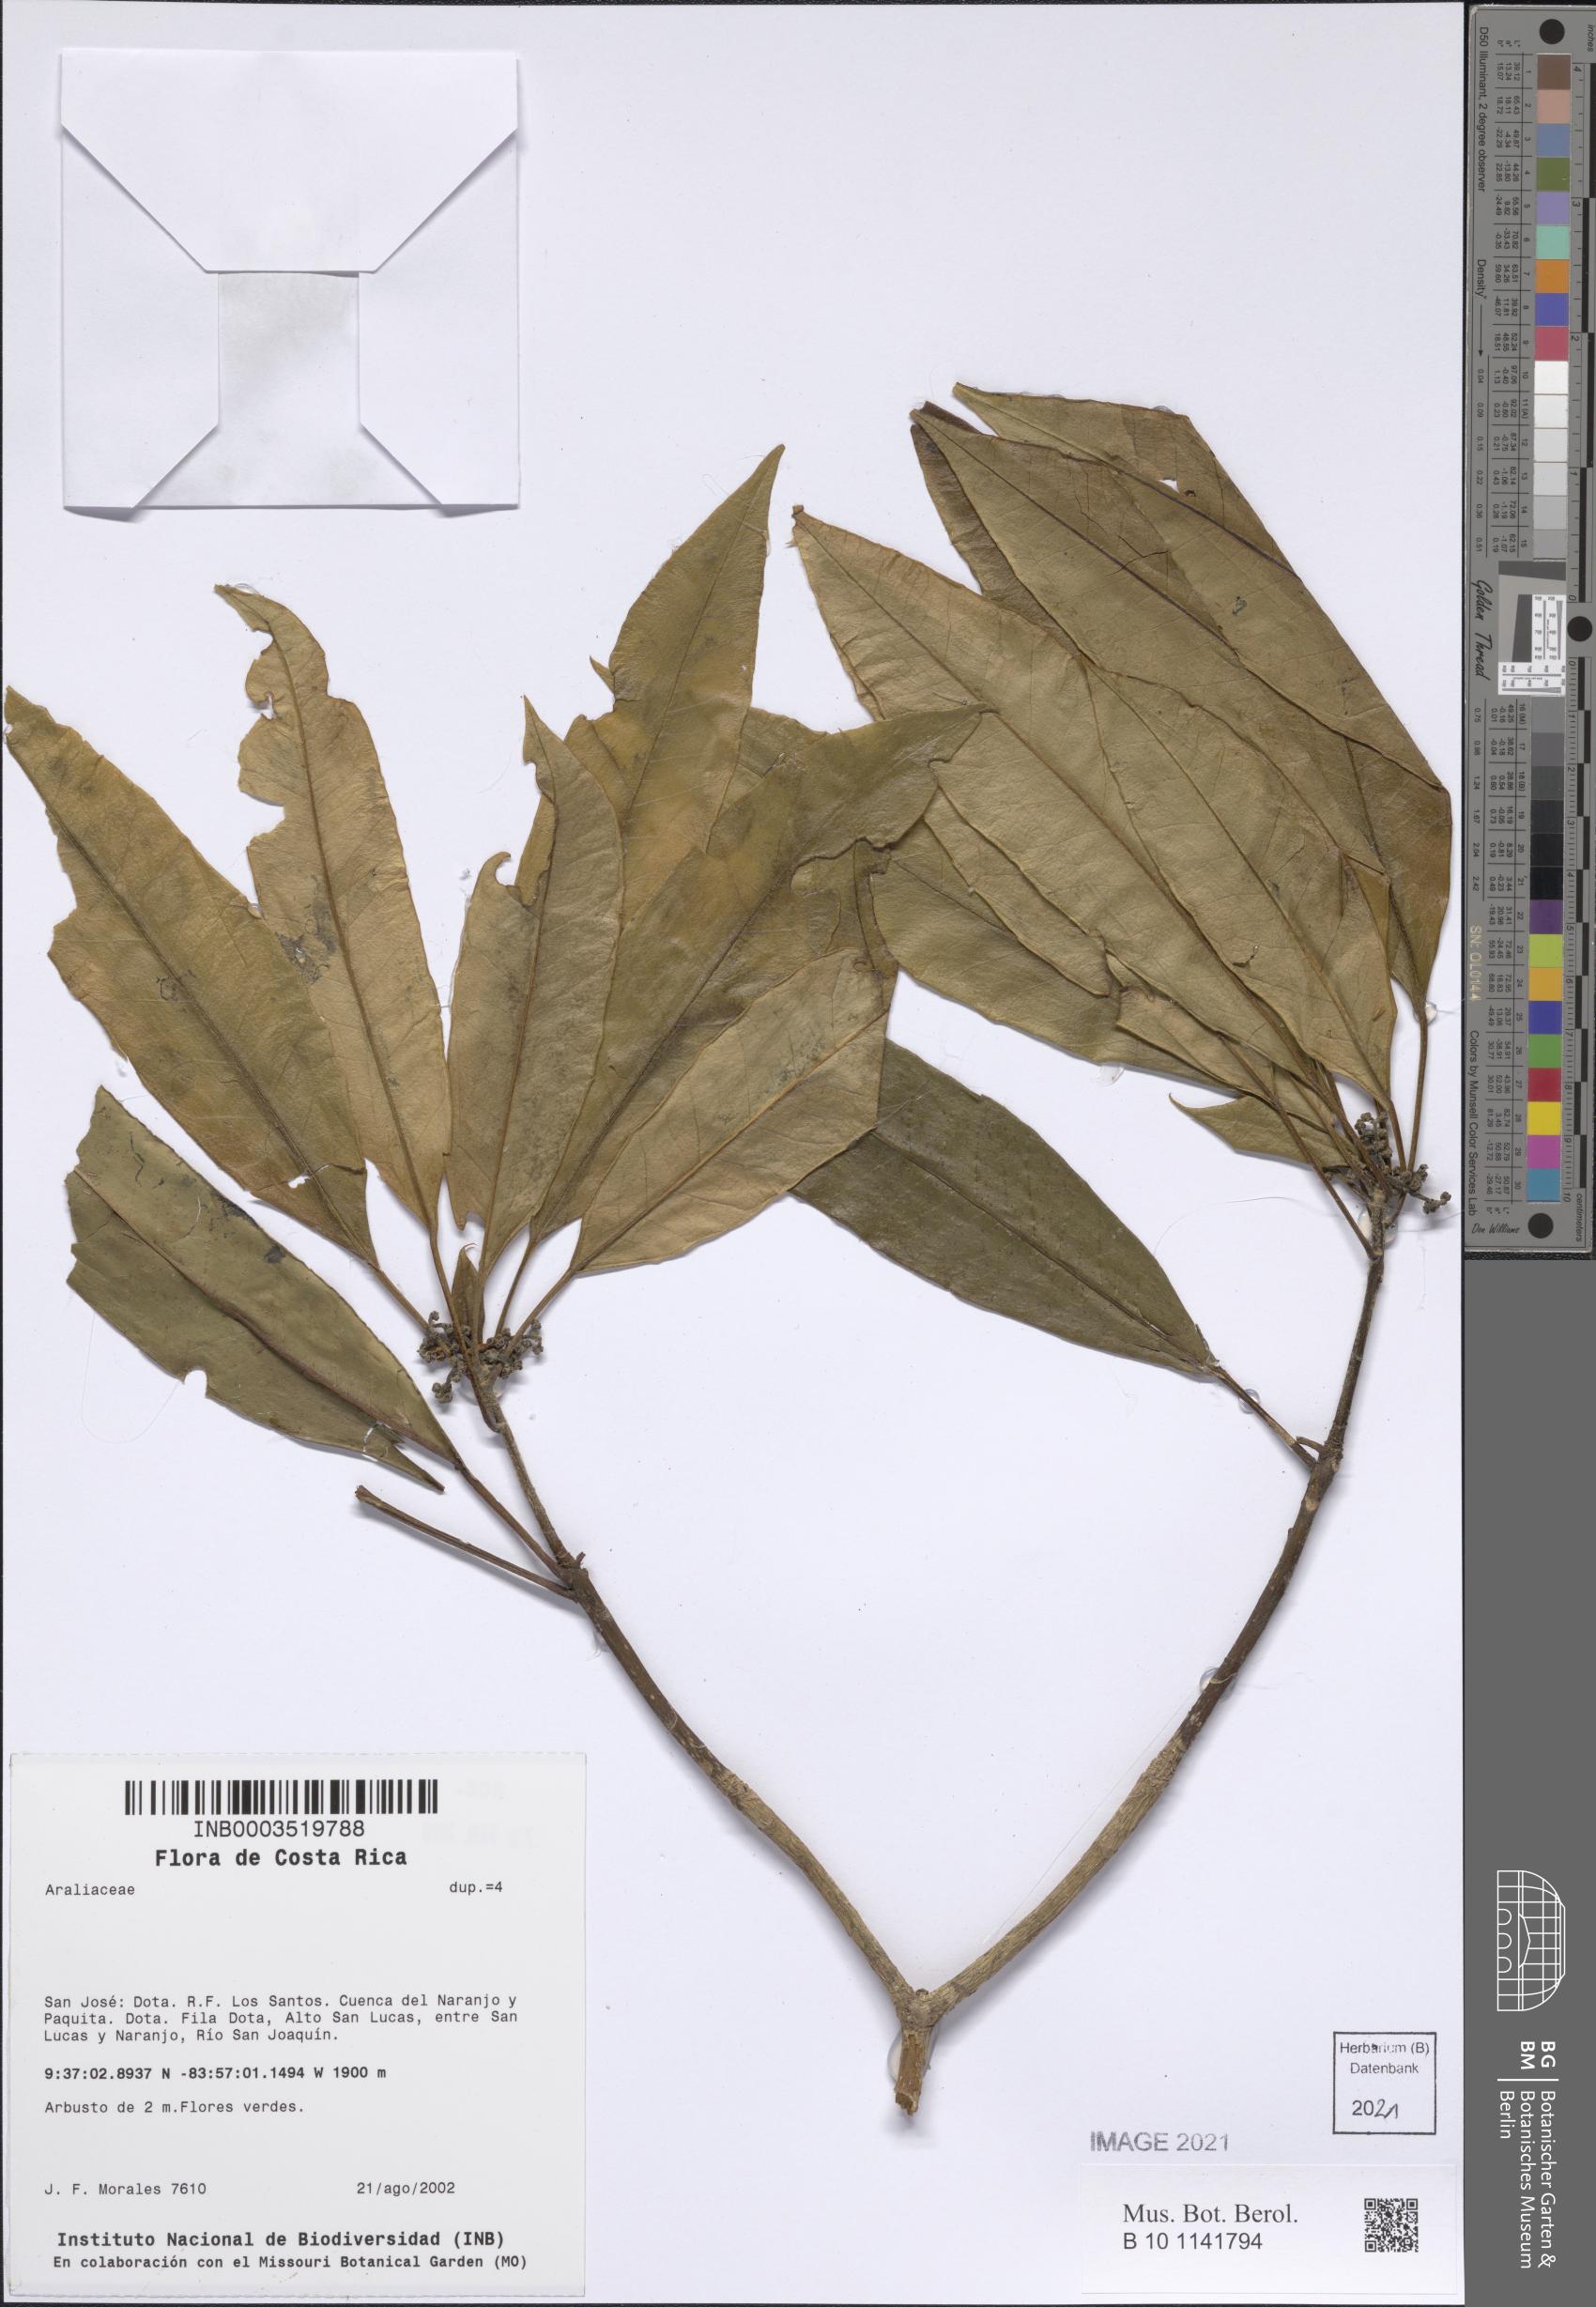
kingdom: Plantae
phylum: Tracheophyta
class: Magnoliopsida
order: Apiales
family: Araliaceae
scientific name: Araliaceae
